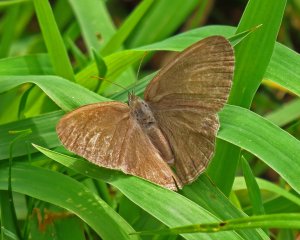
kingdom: Animalia
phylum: Arthropoda
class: Insecta
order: Lepidoptera
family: Nymphalidae
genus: Hermeuptychia
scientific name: Hermeuptychia hermes
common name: Carolina Satyr
